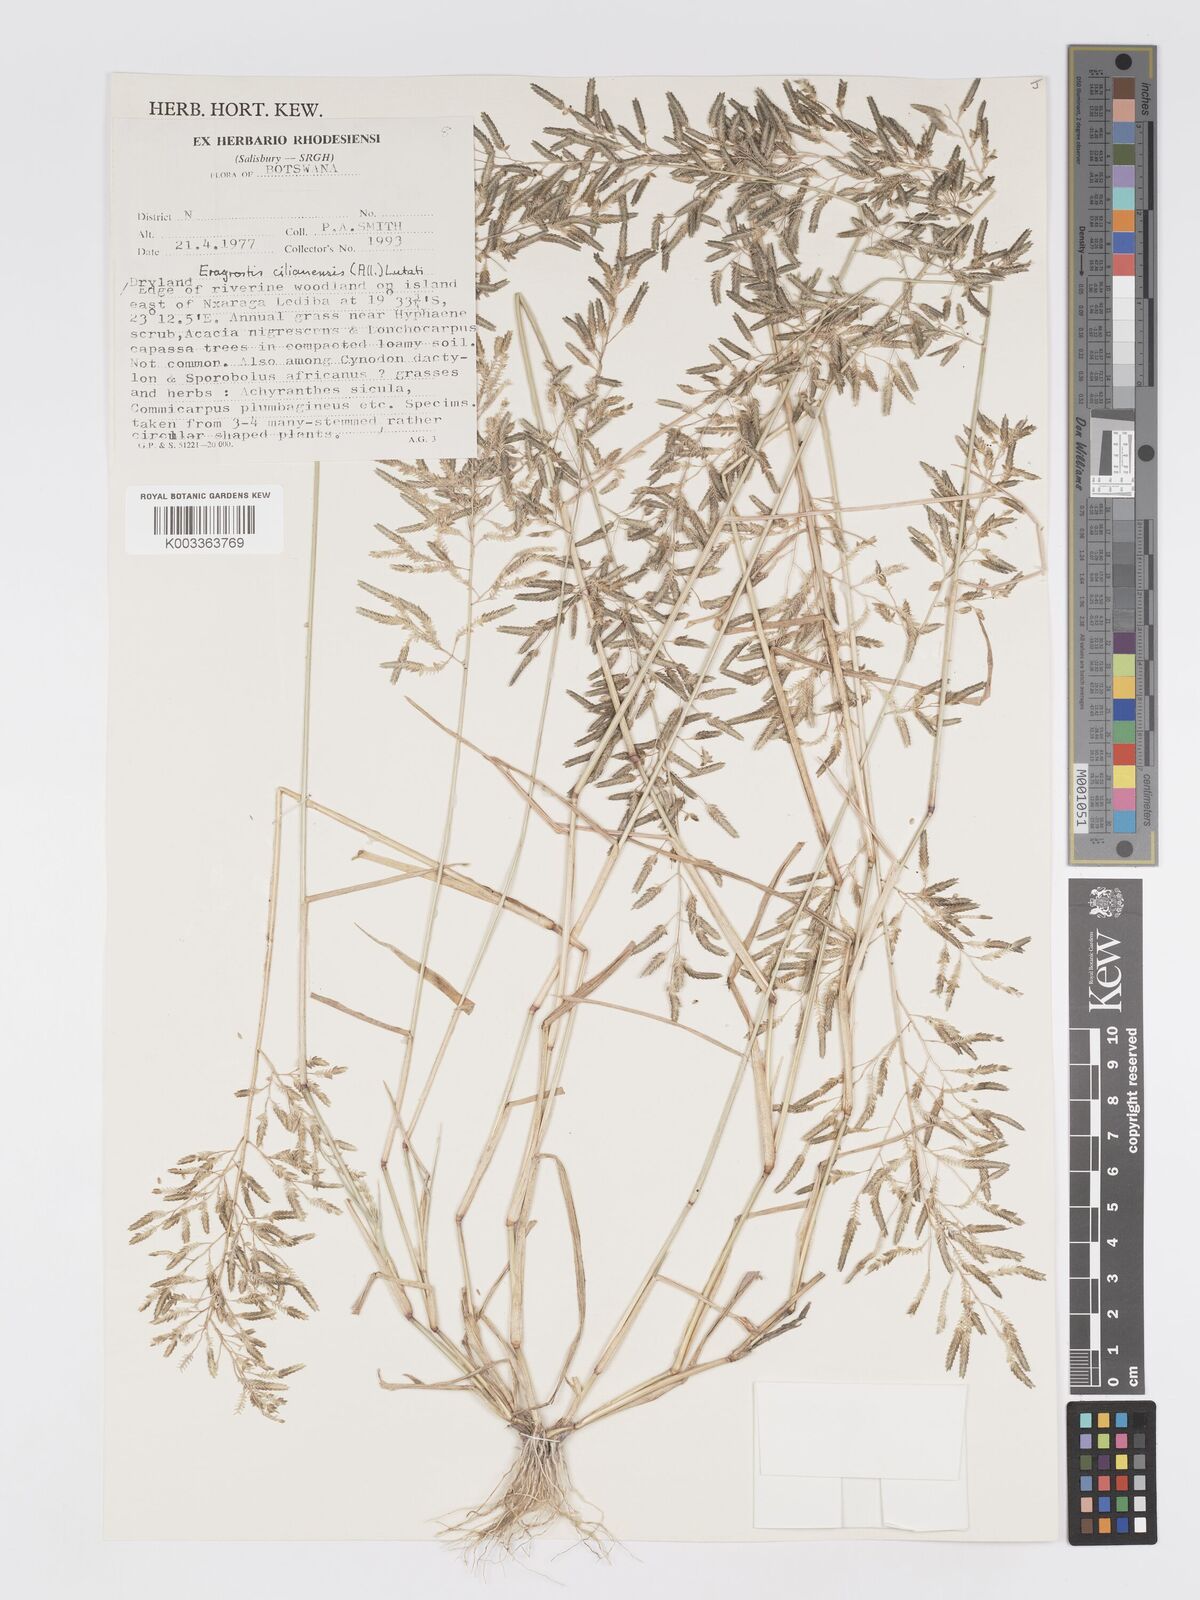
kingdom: Plantae
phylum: Tracheophyta
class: Liliopsida
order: Poales
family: Poaceae
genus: Eragrostis
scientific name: Eragrostis cilianensis
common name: Stinkgrass
